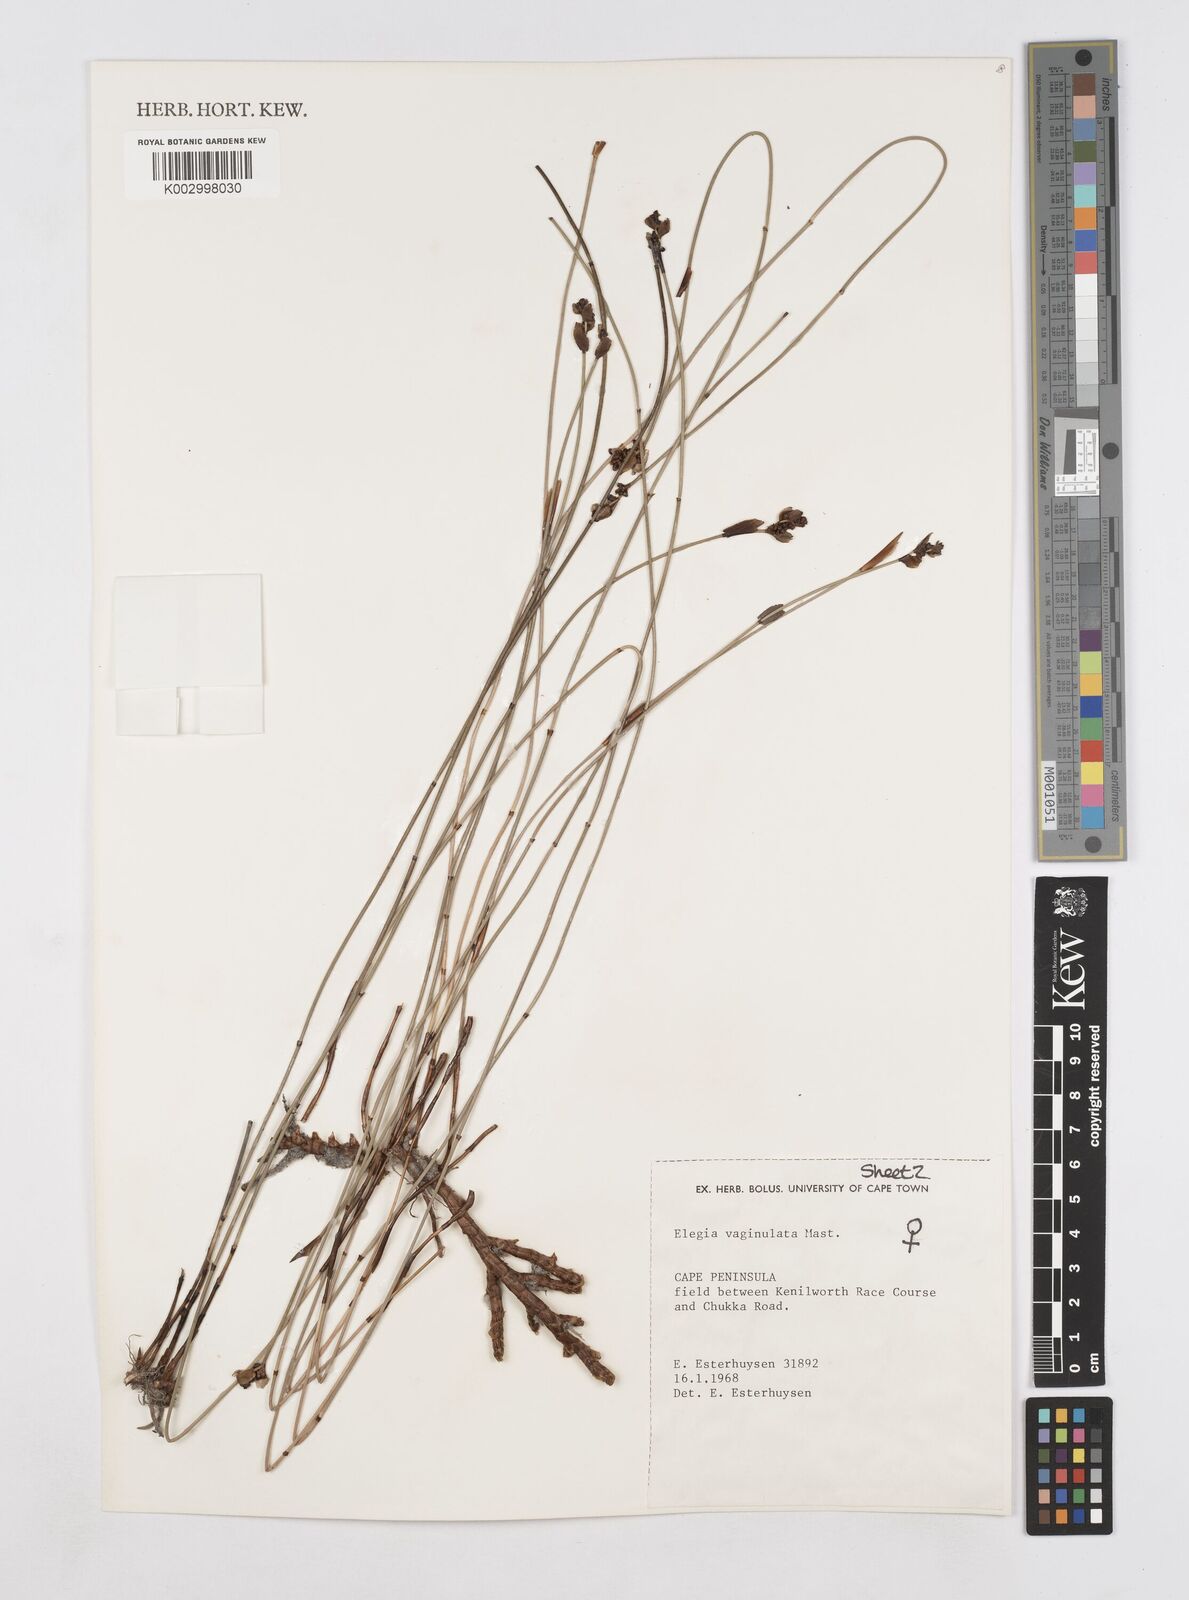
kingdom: Plantae
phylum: Tracheophyta
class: Liliopsida
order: Poales
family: Restionaceae
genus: Elegia
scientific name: Elegia vaginulata
